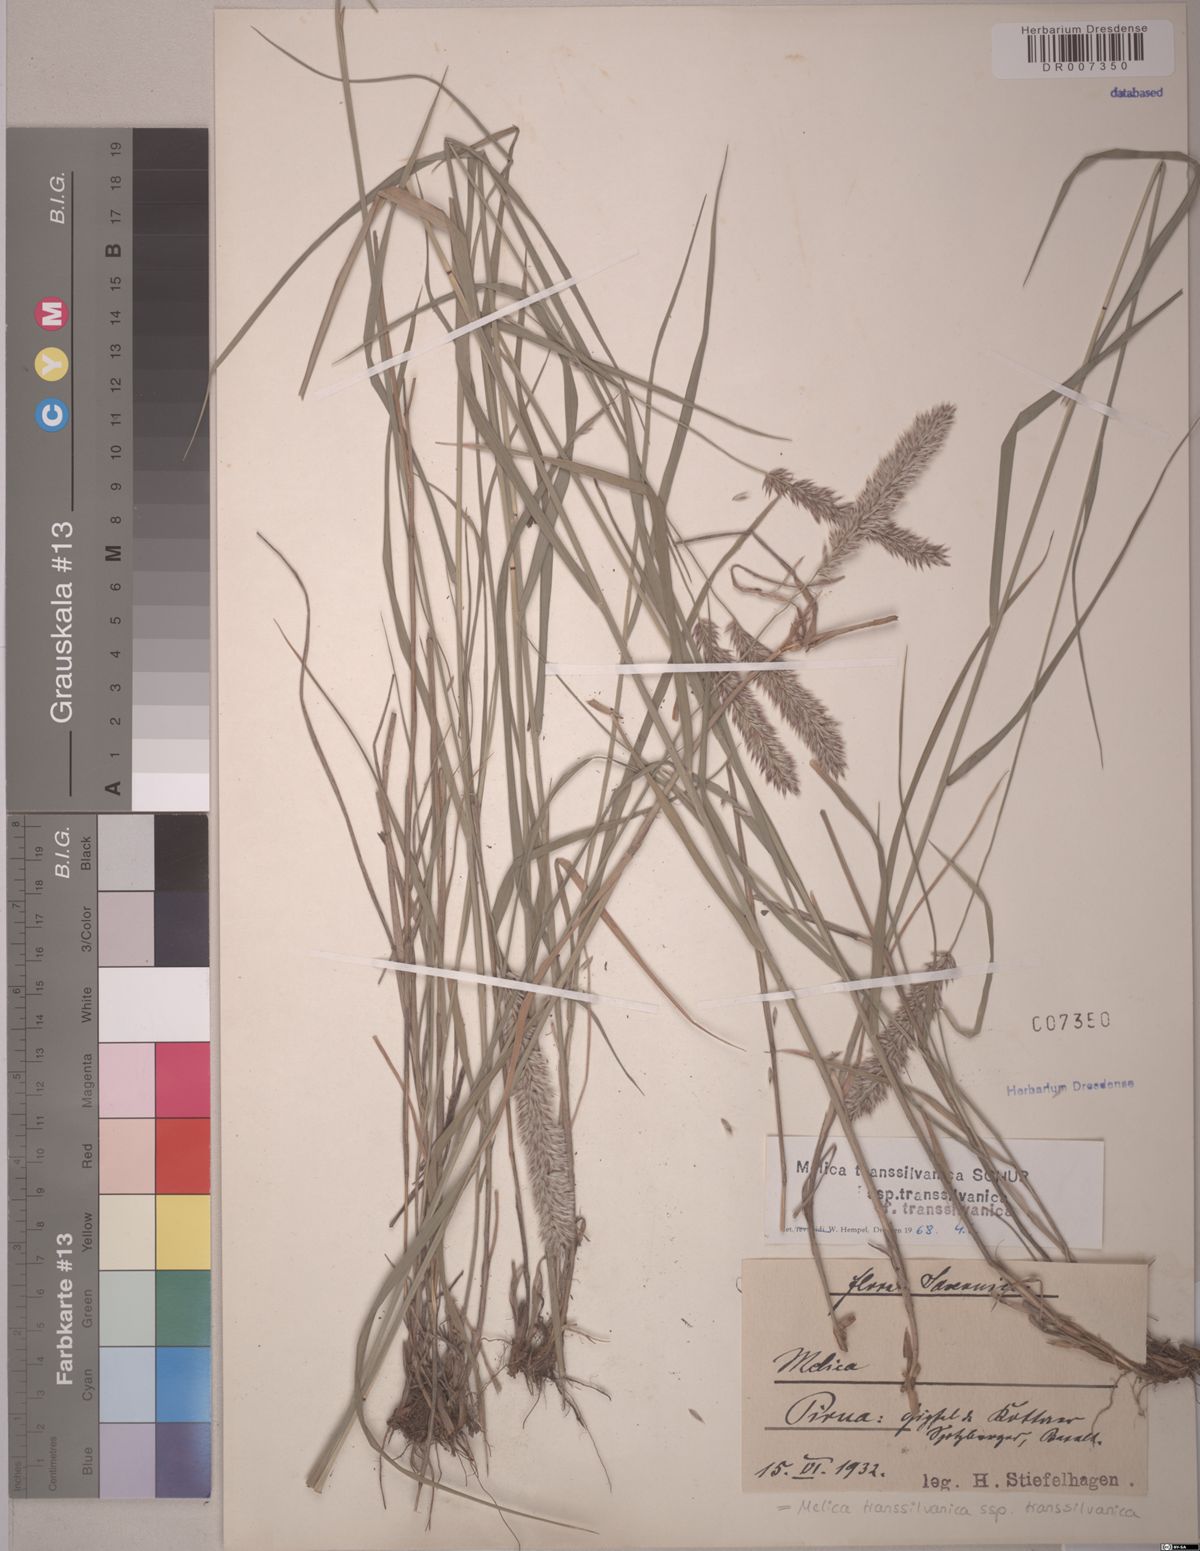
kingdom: Plantae
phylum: Tracheophyta
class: Liliopsida
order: Poales
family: Poaceae
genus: Melica
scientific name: Melica transsilvanica
